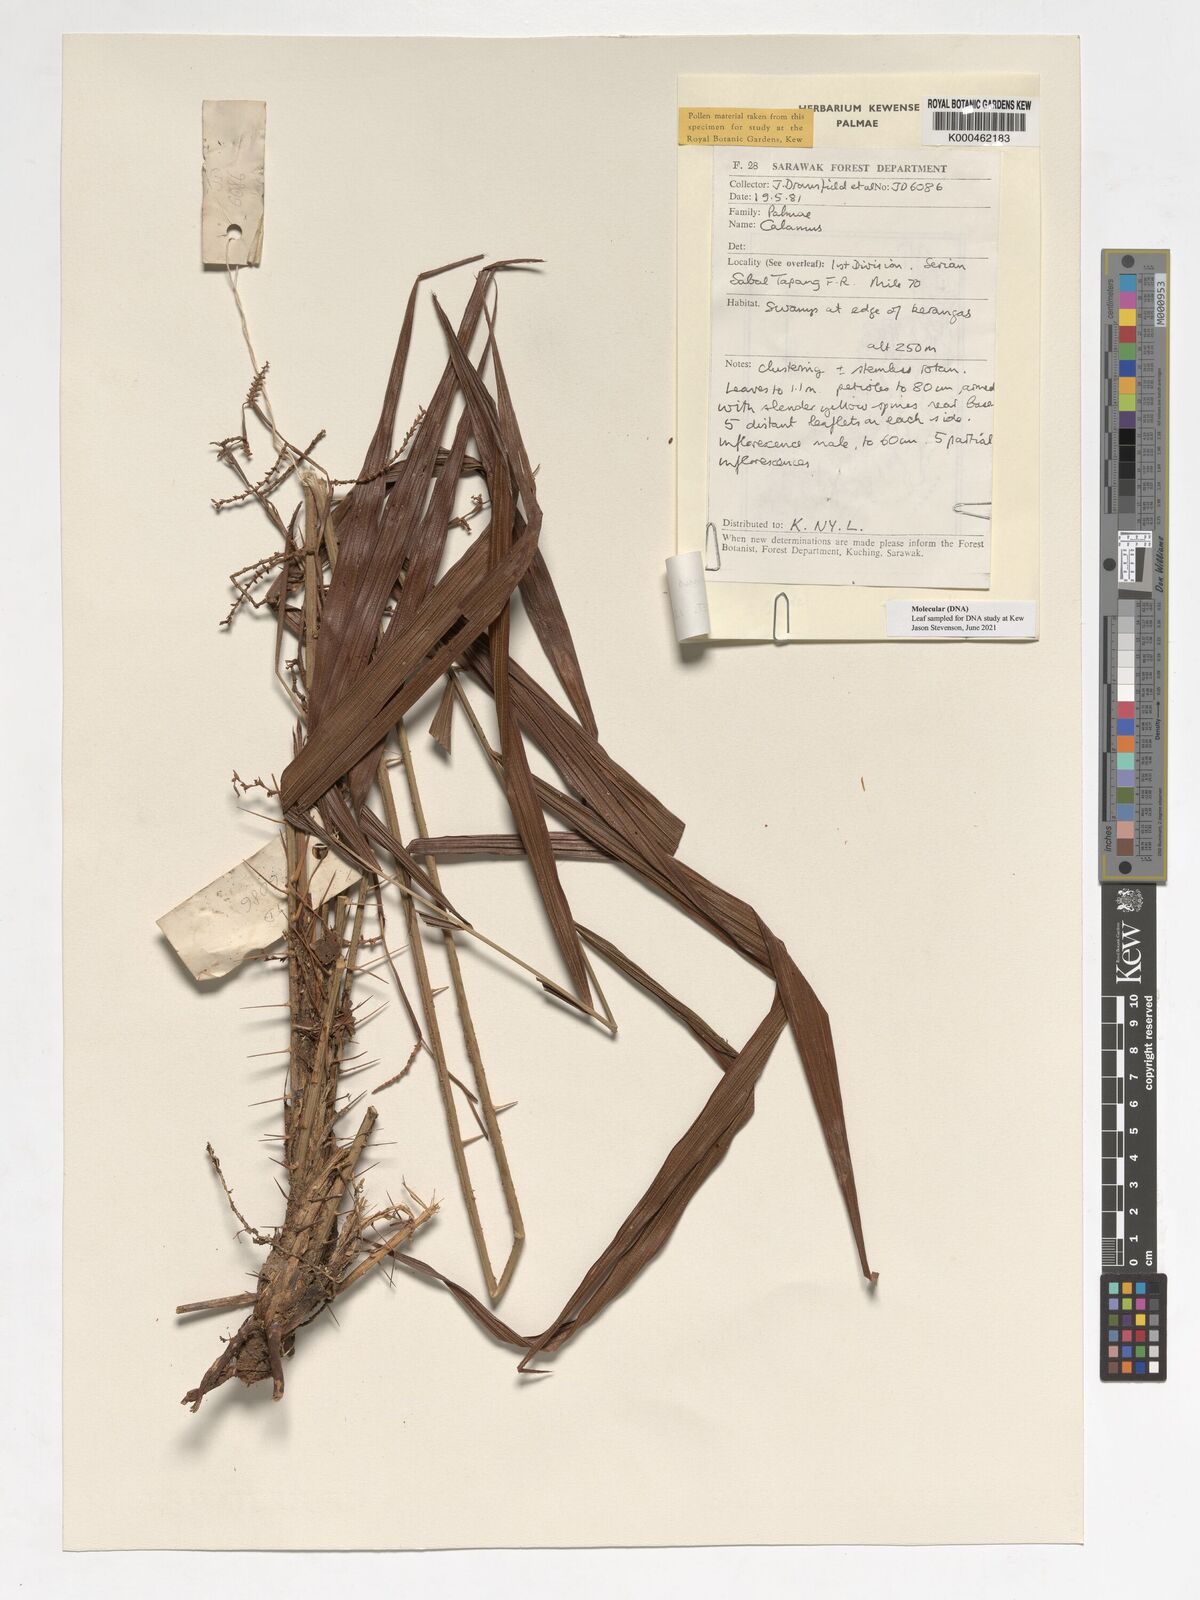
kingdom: Plantae
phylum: Tracheophyta
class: Liliopsida
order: Arecales
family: Arecaceae
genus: Calamus
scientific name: Calamus sabalensis
